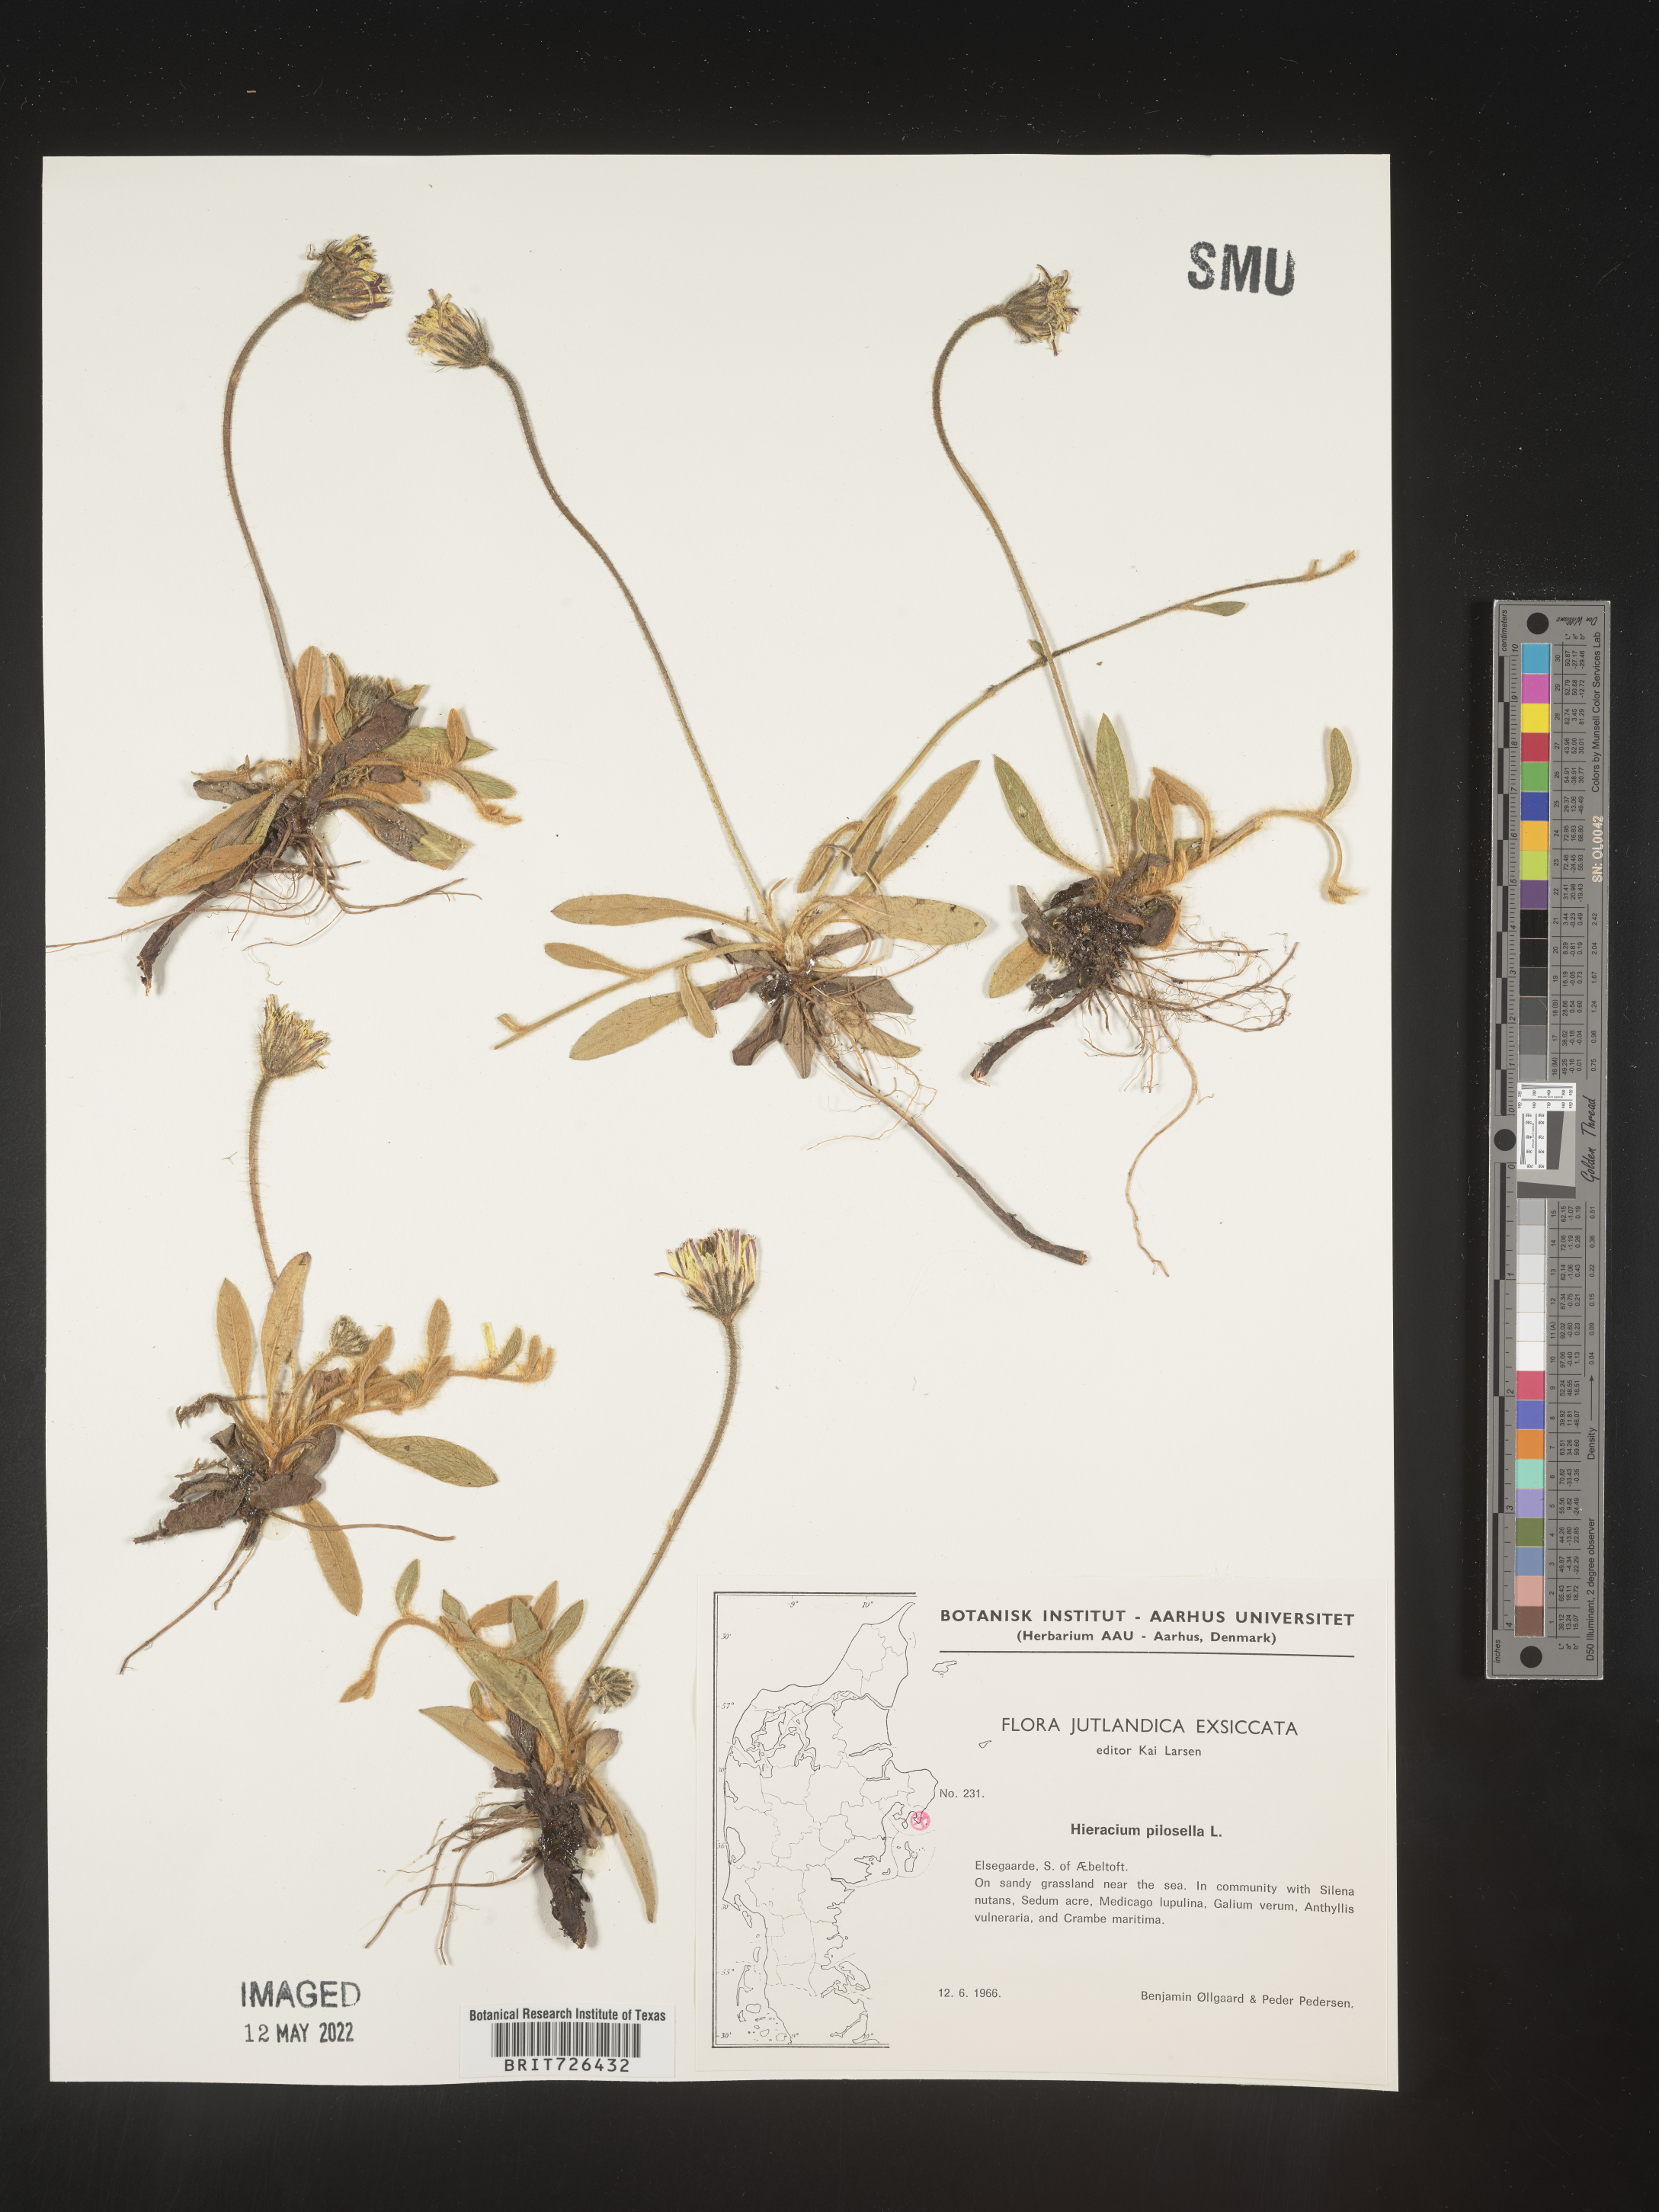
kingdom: Plantae
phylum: Tracheophyta
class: Magnoliopsida
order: Asterales
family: Asteraceae
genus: Hieracium
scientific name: Hieracium
